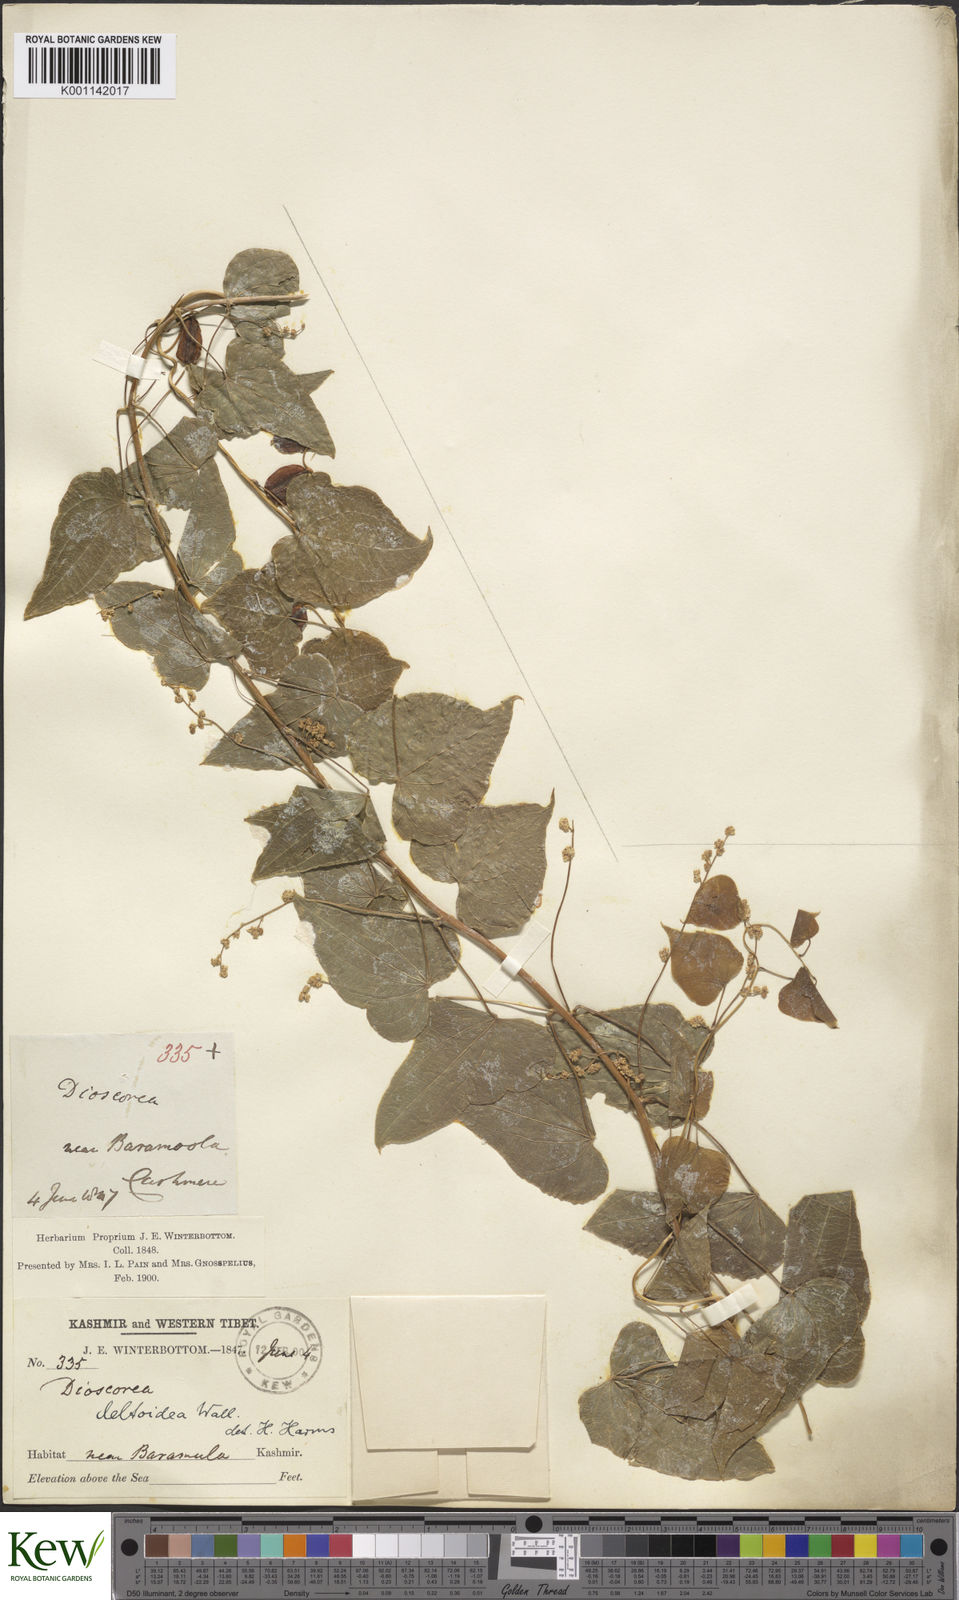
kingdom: Plantae
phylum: Tracheophyta
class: Liliopsida
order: Dioscoreales
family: Dioscoreaceae
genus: Dioscorea
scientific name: Dioscorea deltoidea
